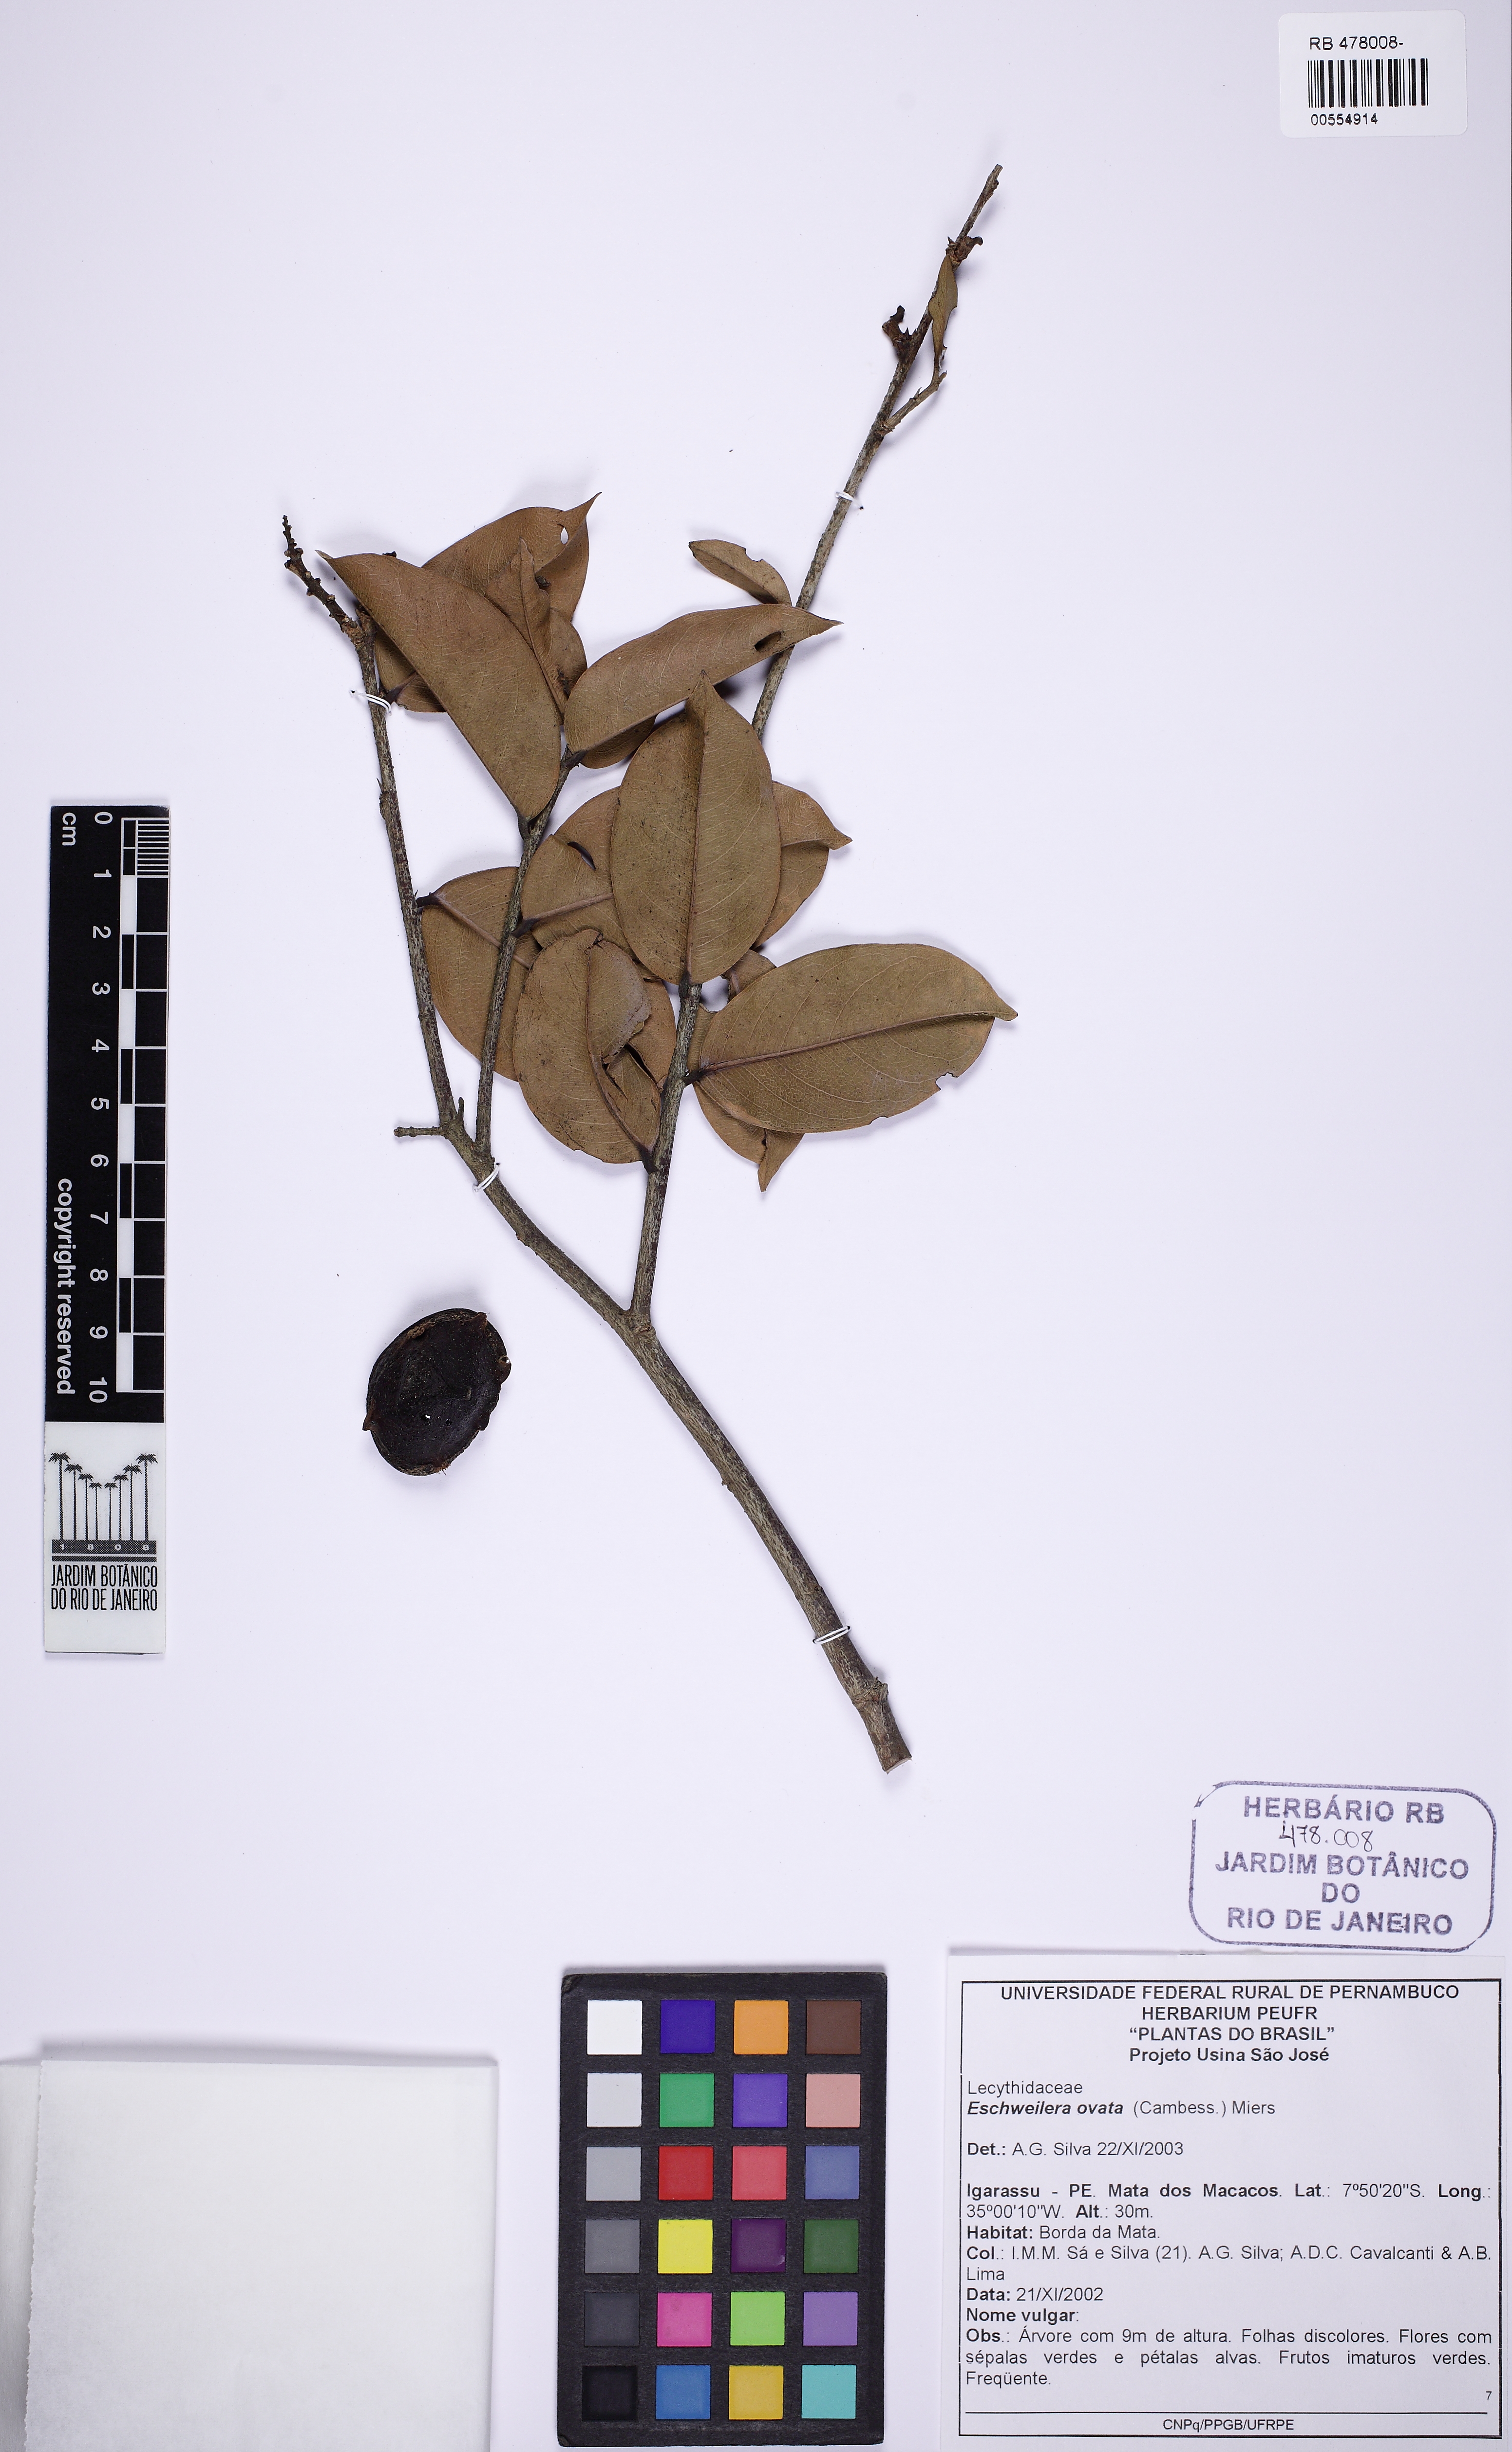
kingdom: Plantae
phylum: Tracheophyta
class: Magnoliopsida
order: Ericales
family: Lecythidaceae
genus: Eschweilera
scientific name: Eschweilera ovata
